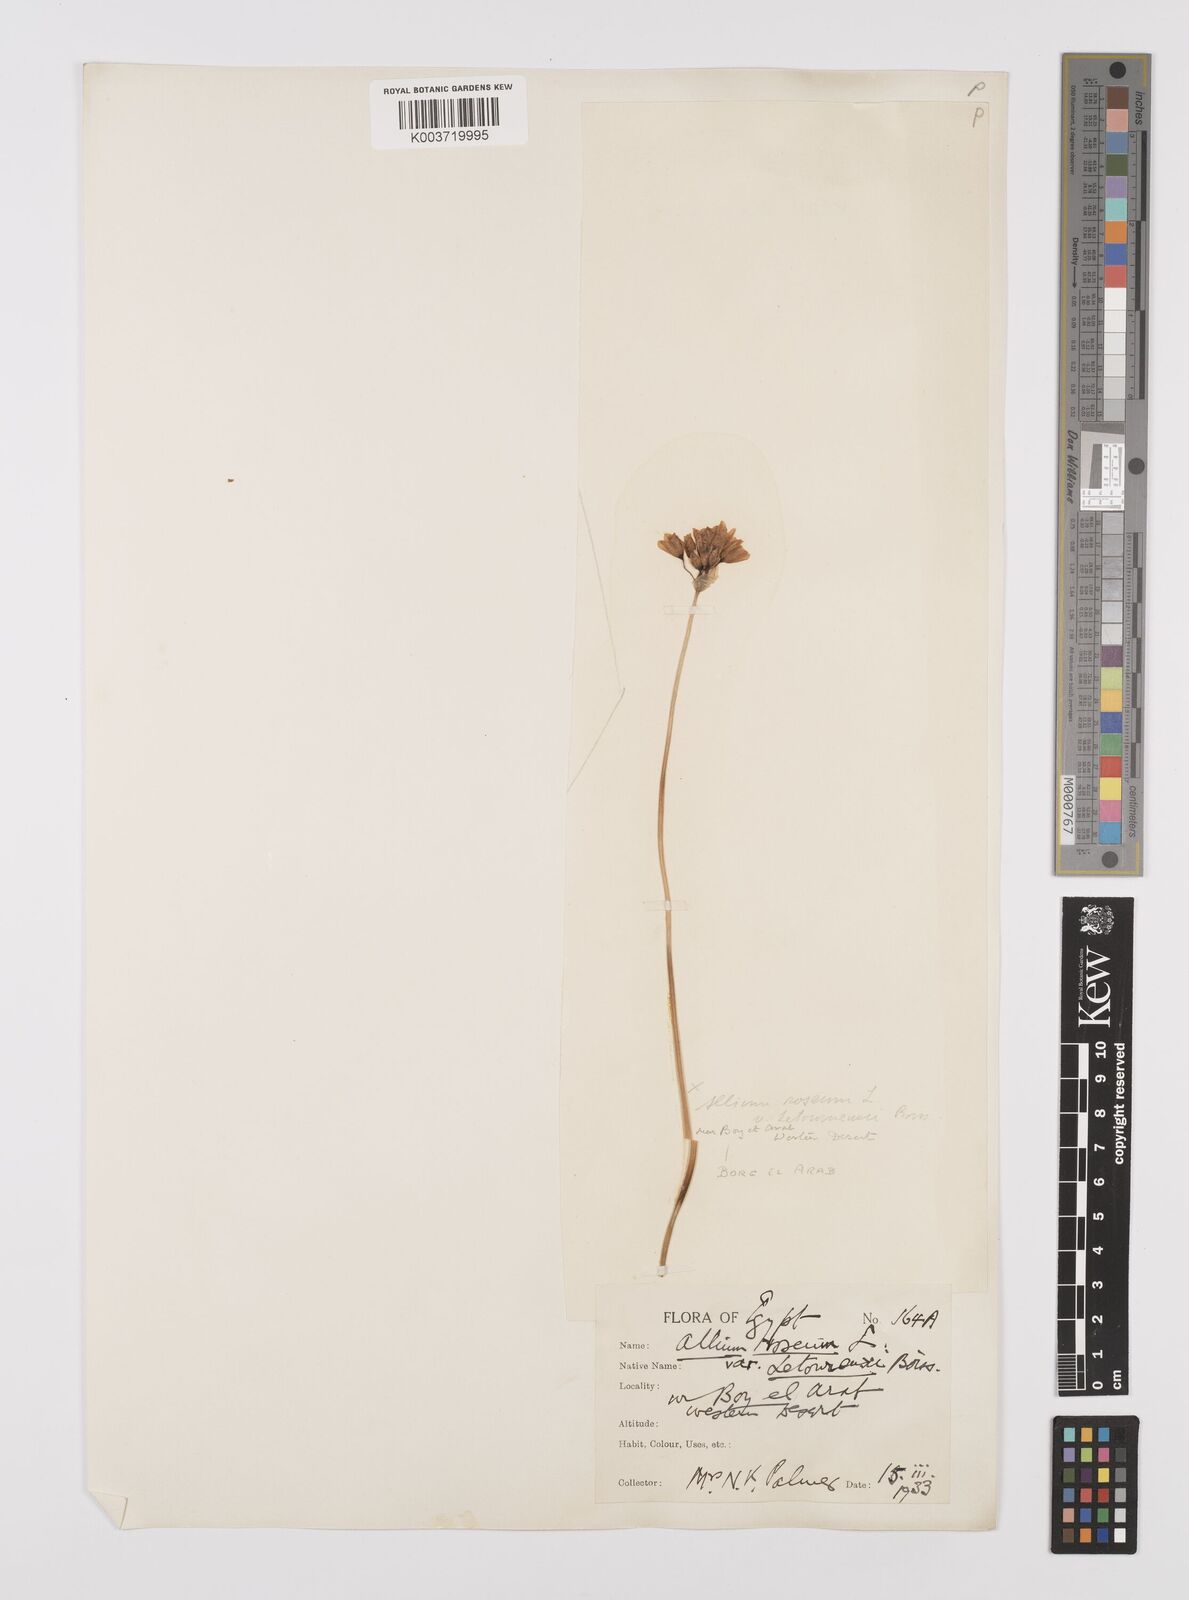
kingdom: Plantae
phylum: Tracheophyta
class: Liliopsida
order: Asparagales
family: Amaryllidaceae
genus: Allium
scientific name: Allium roseum
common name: Rosy garlic
